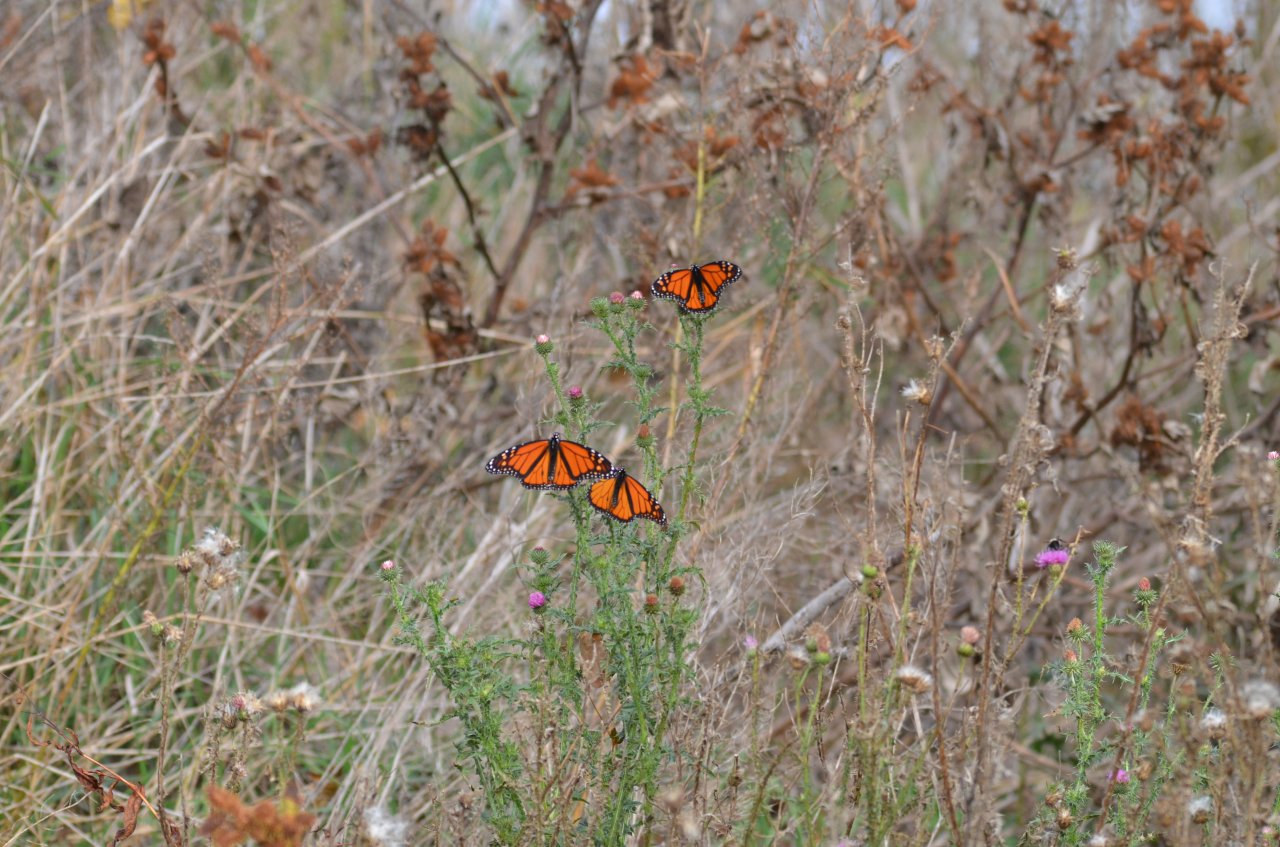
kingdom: Animalia
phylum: Arthropoda
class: Insecta
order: Lepidoptera
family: Nymphalidae
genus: Danaus
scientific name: Danaus plexippus
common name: Monarch
